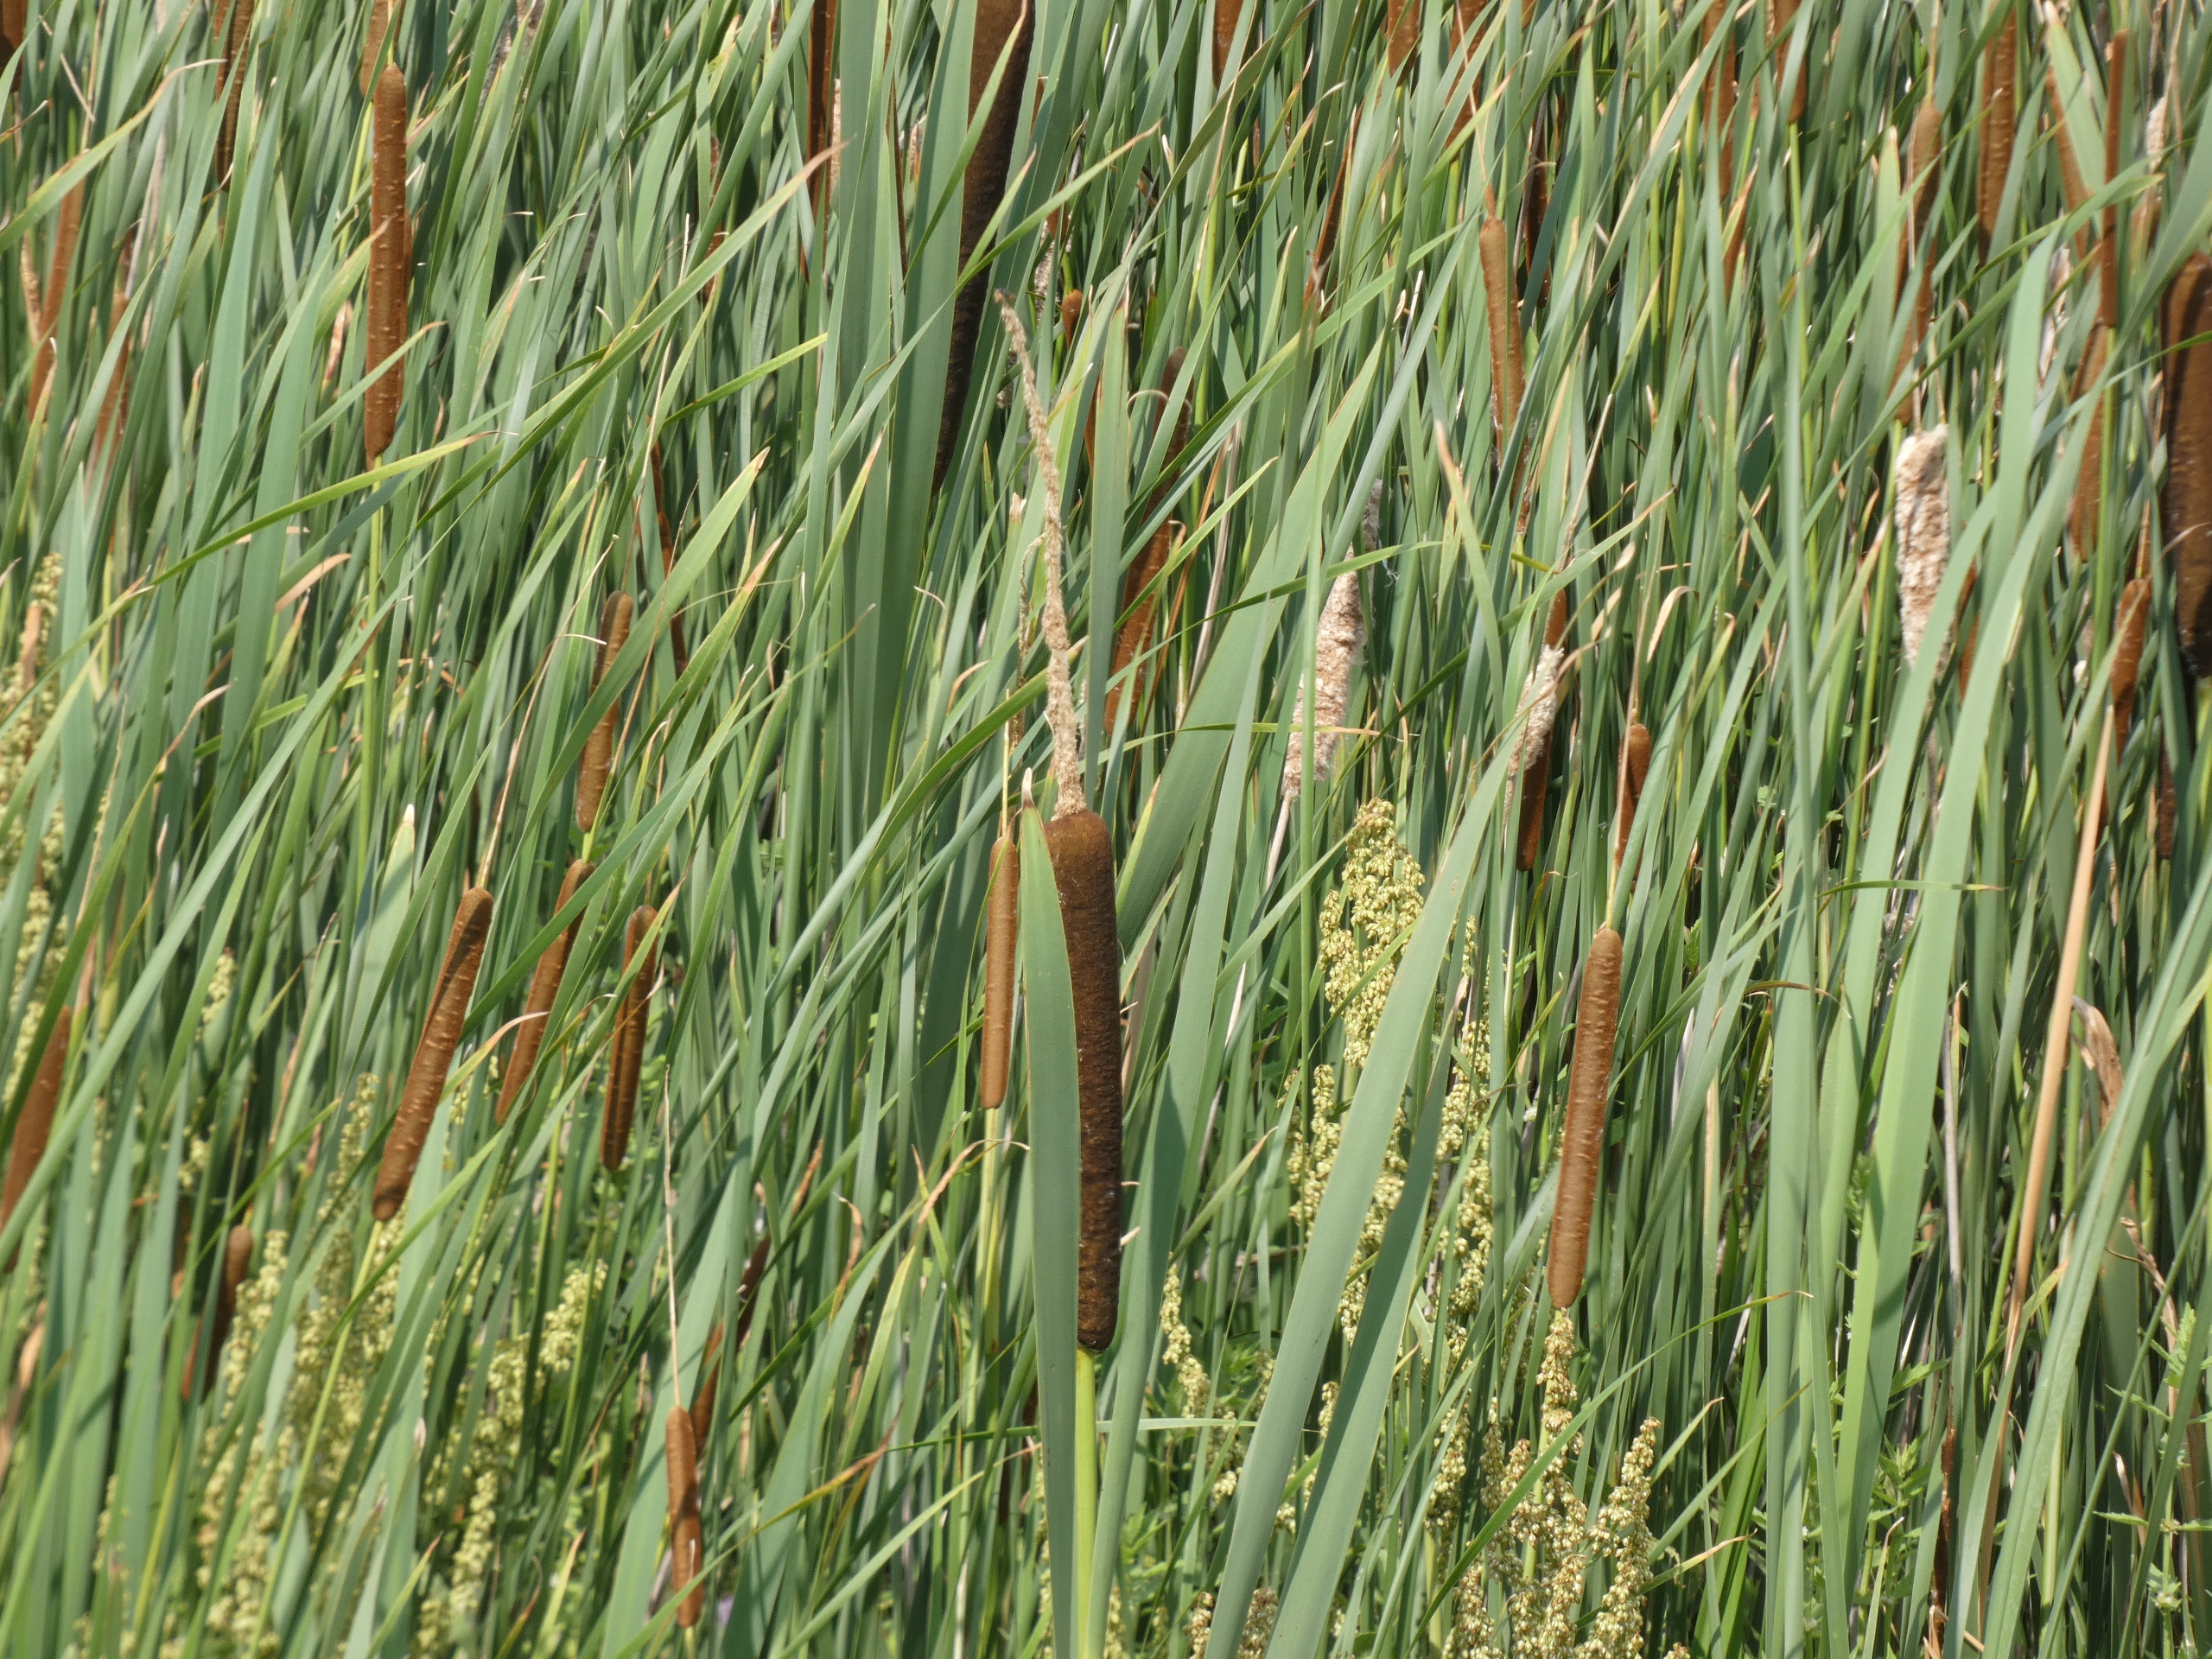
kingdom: Plantae
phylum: Tracheophyta
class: Liliopsida
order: Poales
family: Typhaceae
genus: Typha
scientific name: Typha latifolia
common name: Bredbladet dunhammer
